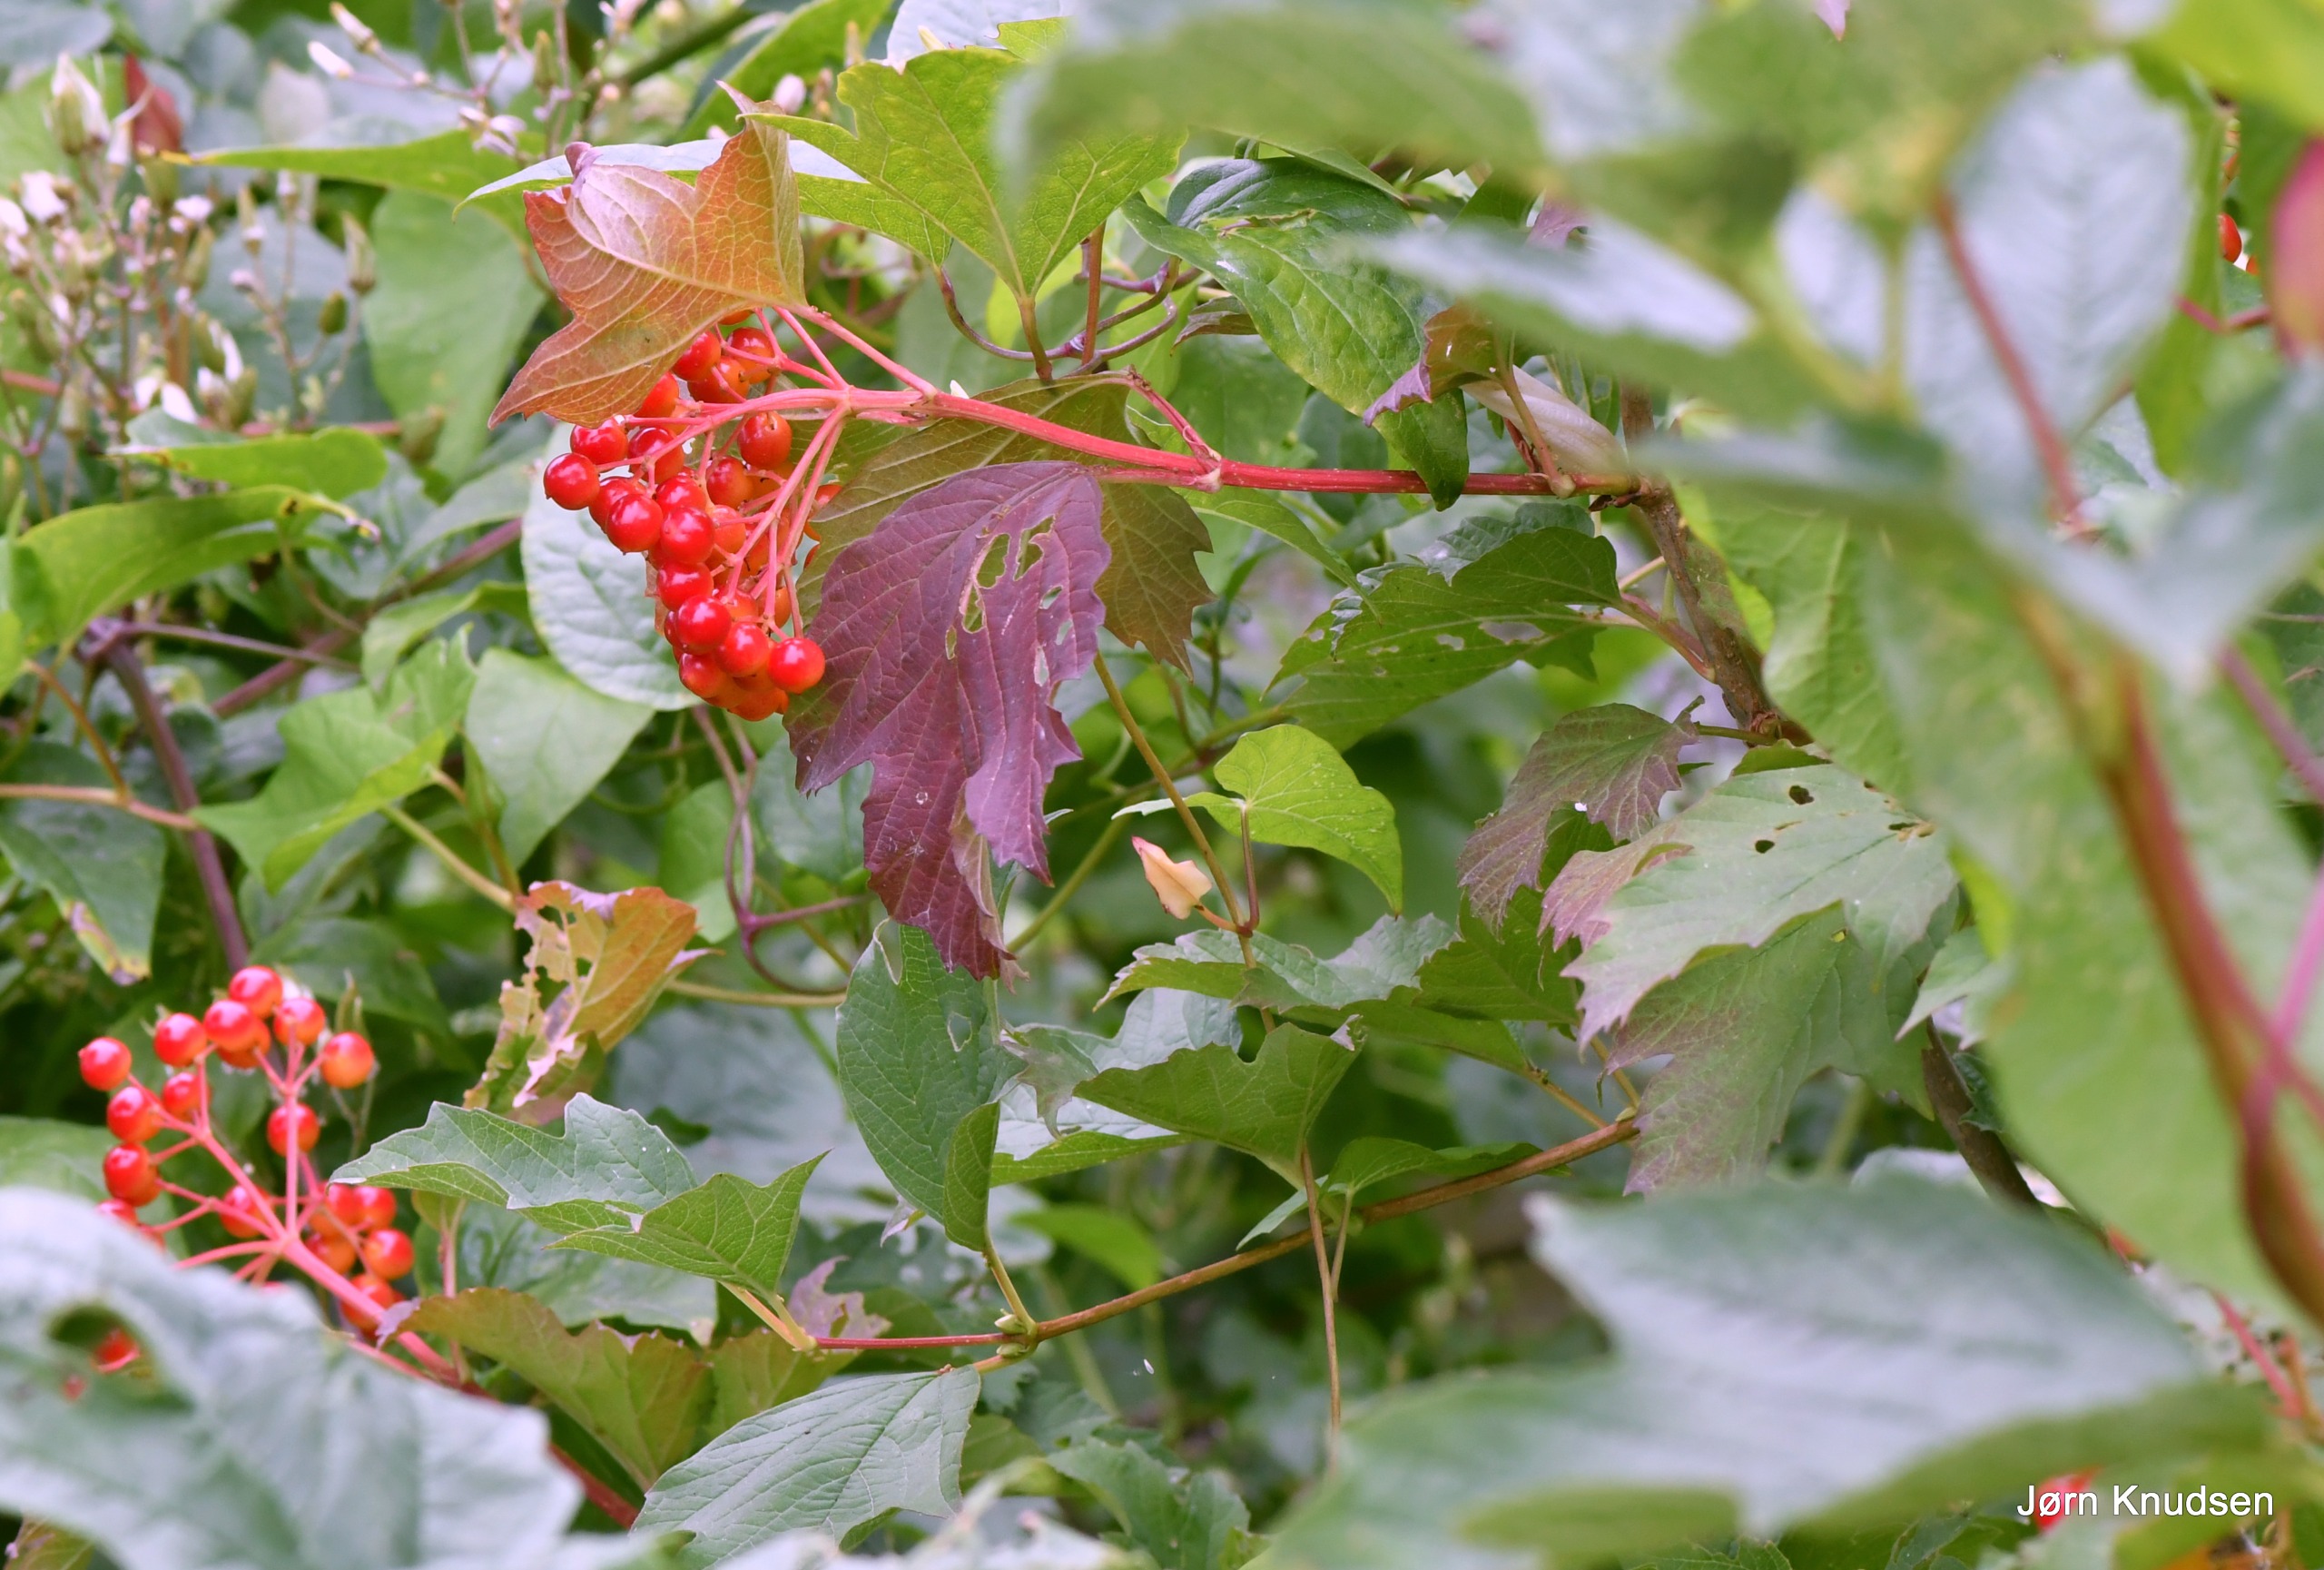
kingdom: Plantae
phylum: Tracheophyta
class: Magnoliopsida
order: Dipsacales
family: Viburnaceae
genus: Viburnum
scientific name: Viburnum opulus
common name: Kvalkved
